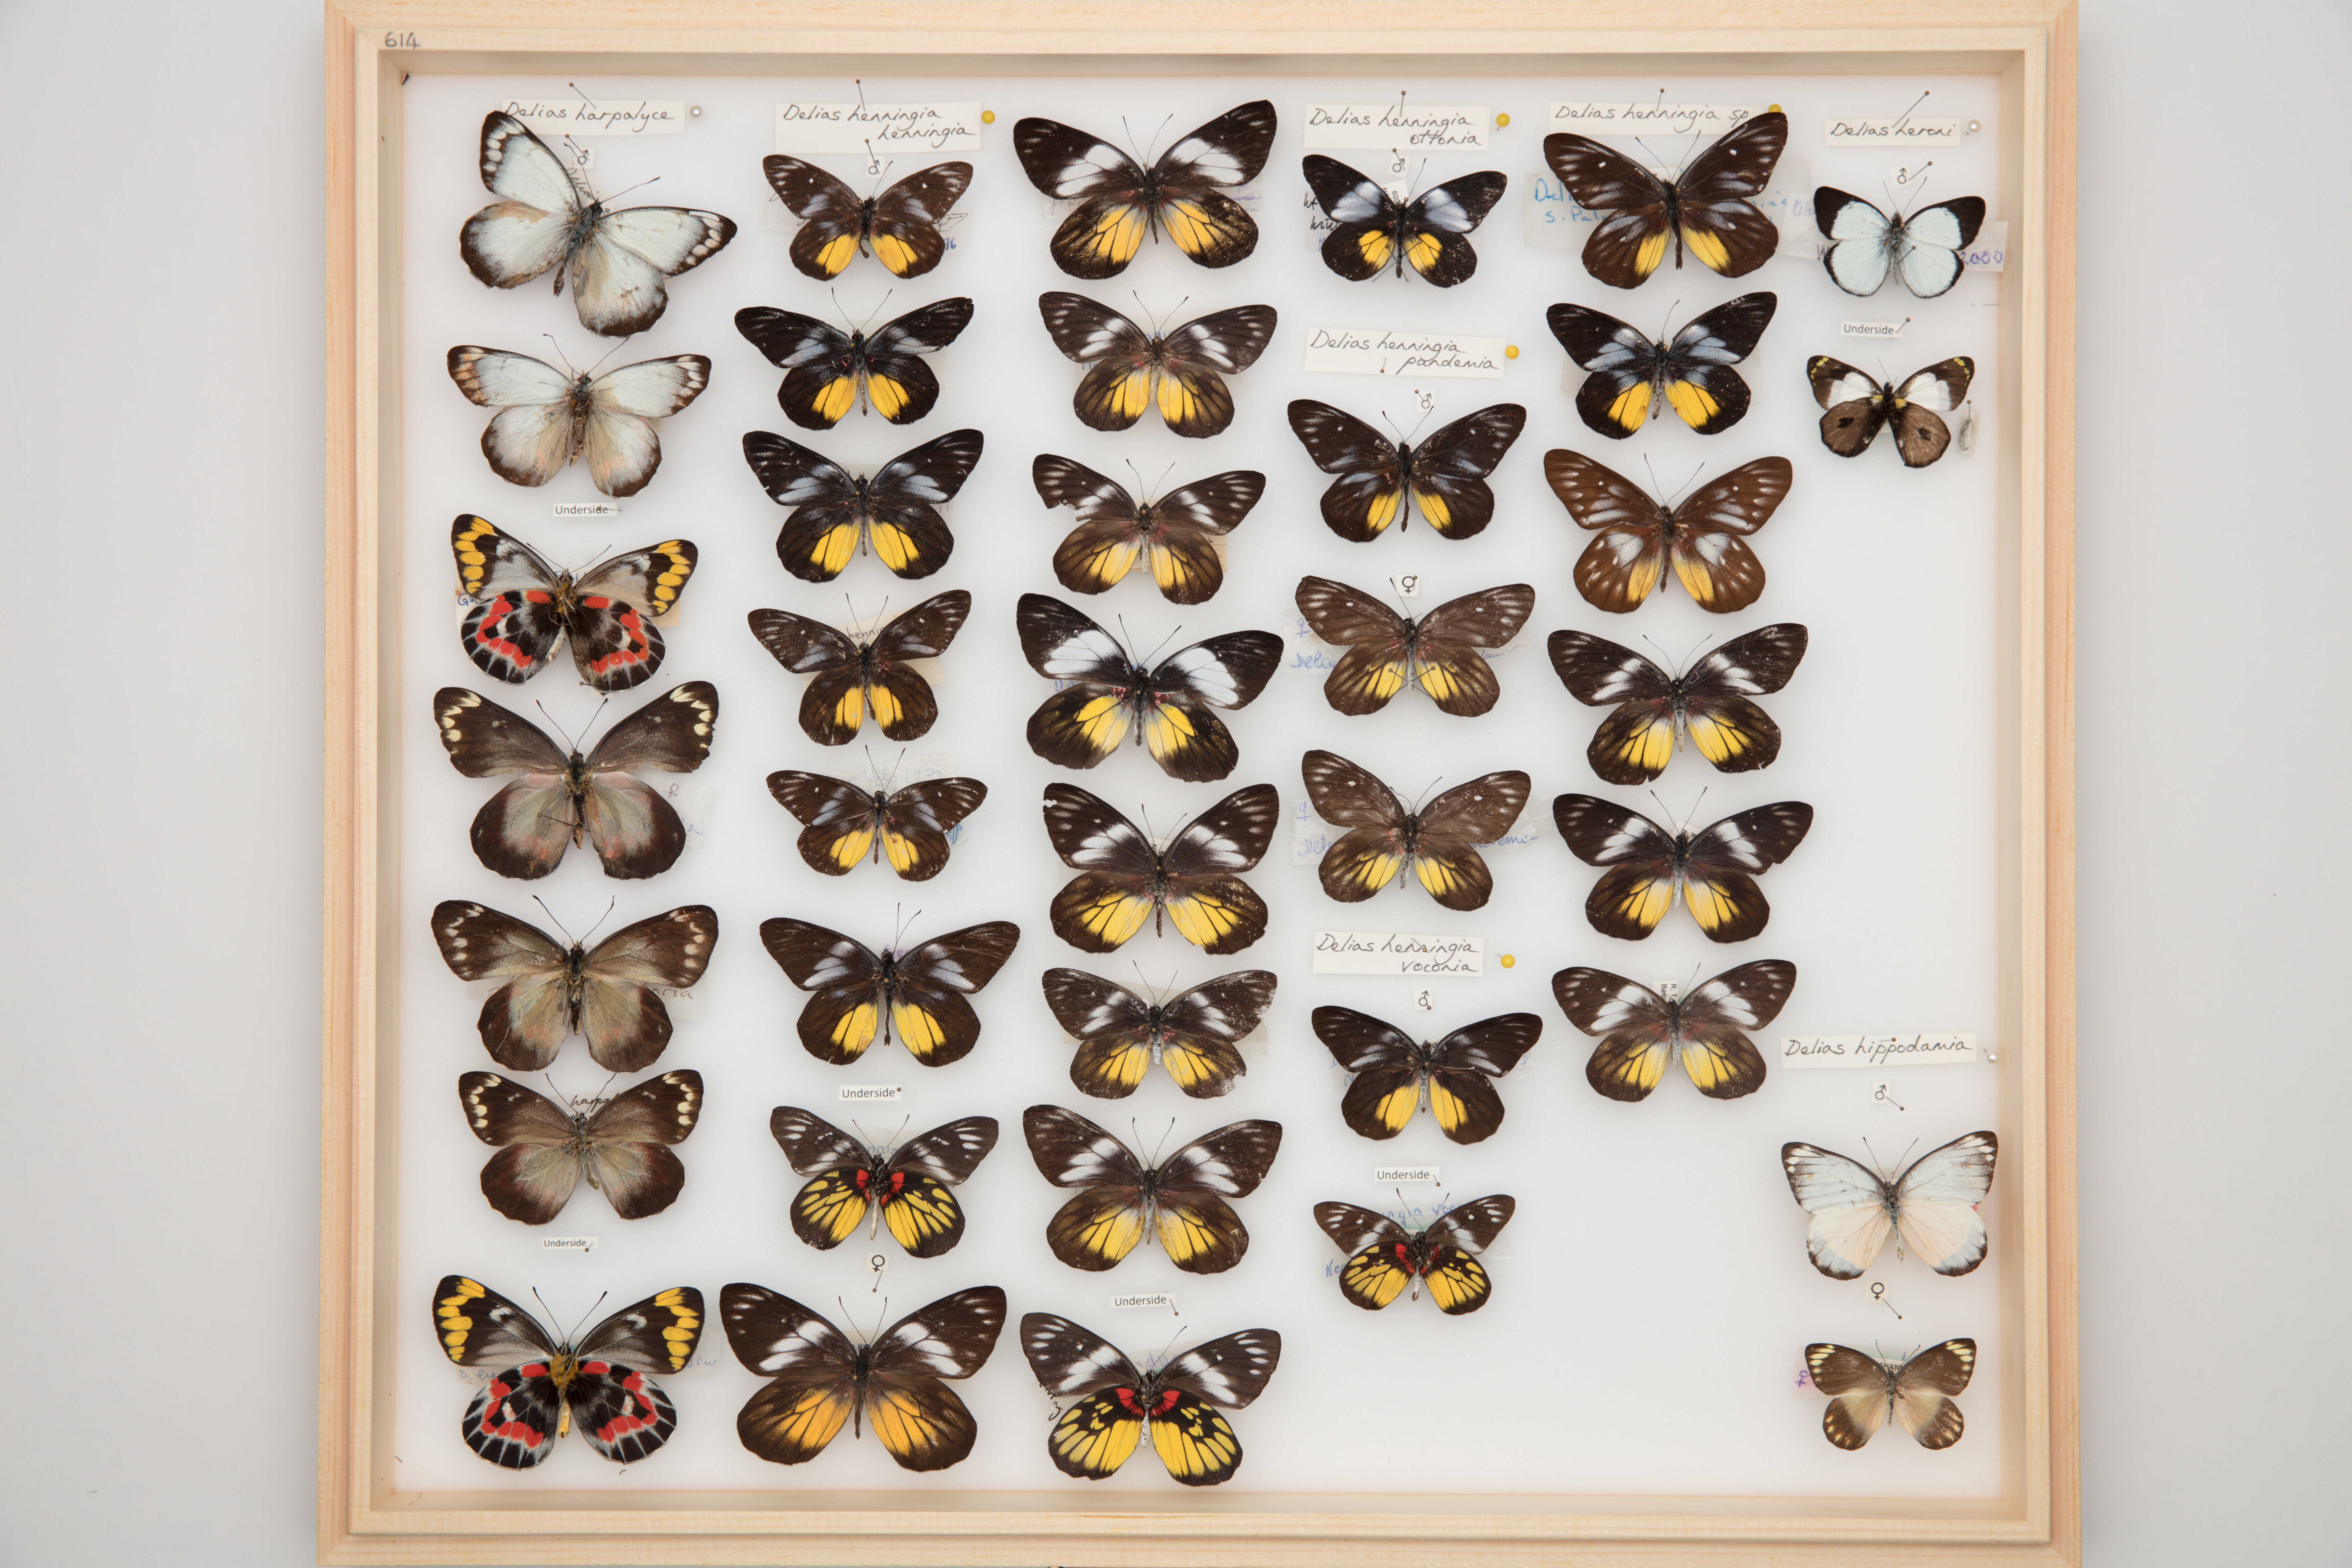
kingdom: Animalia
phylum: Arthropoda
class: Insecta
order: Lepidoptera
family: Pieridae
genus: Delias
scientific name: Delias hippodamia
